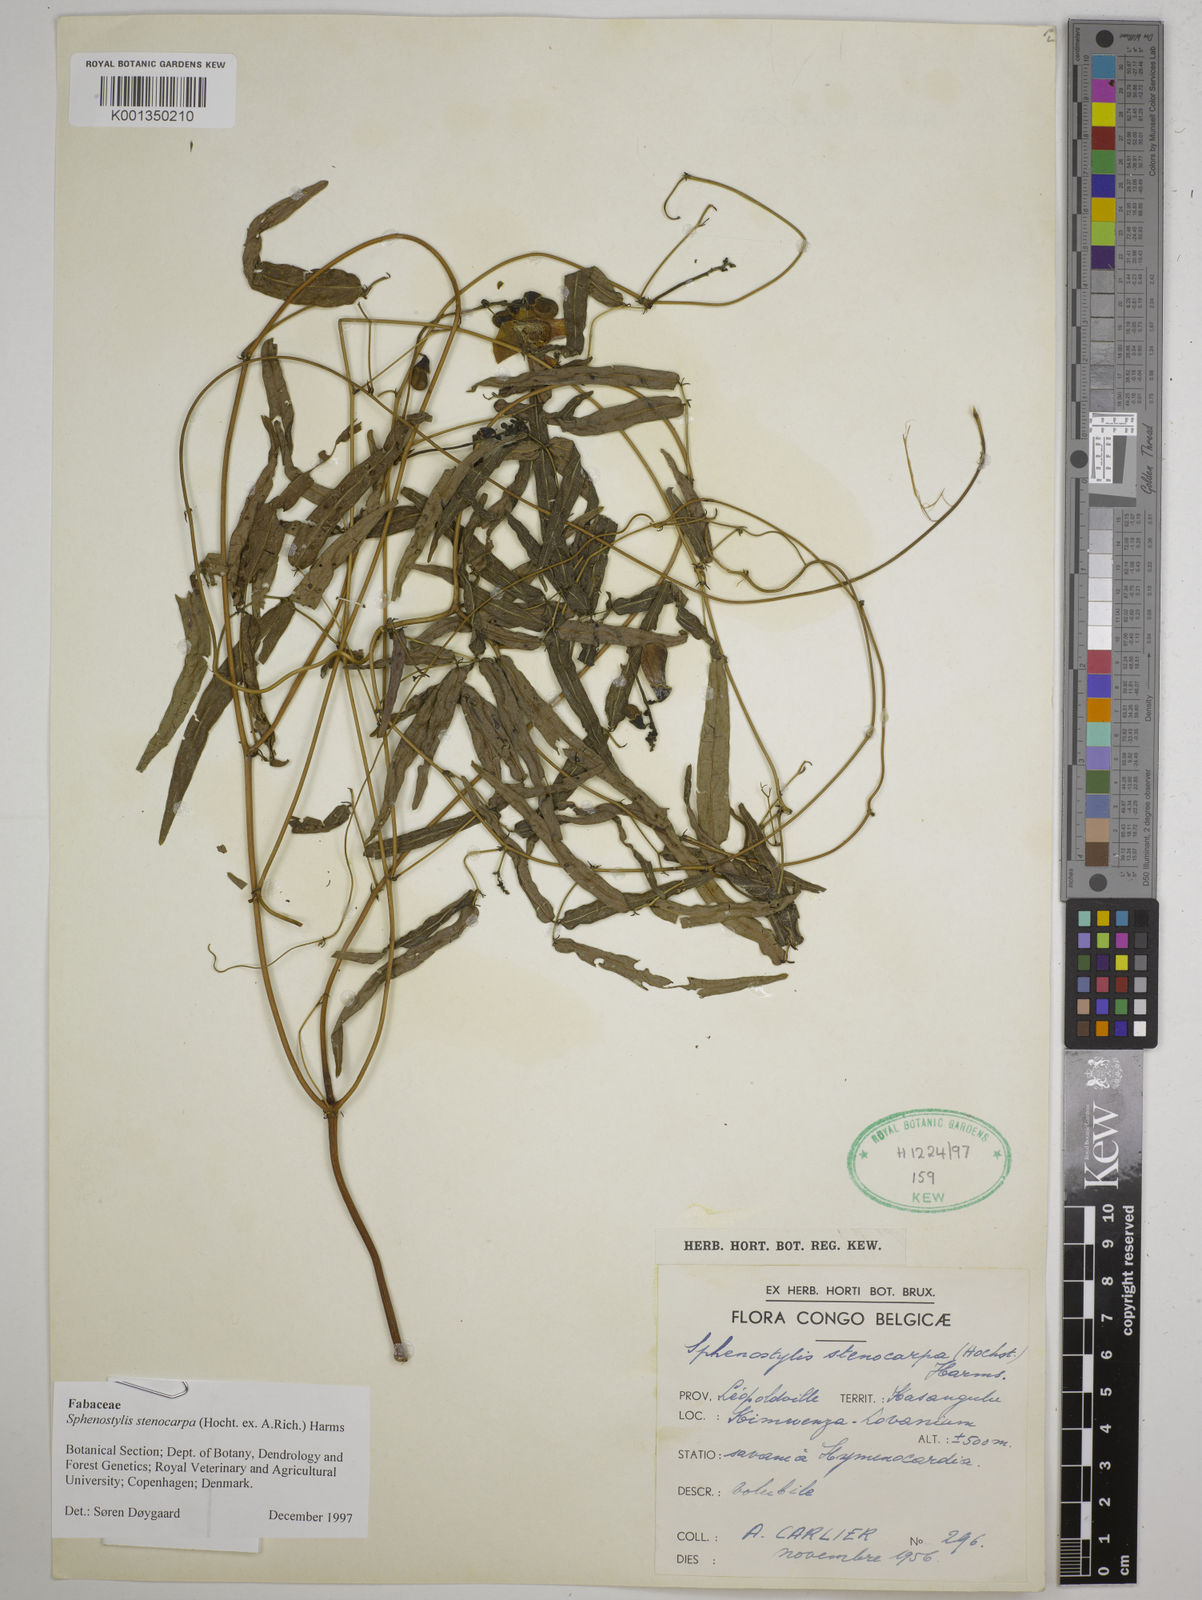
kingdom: Plantae
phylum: Tracheophyta
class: Magnoliopsida
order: Fabales
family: Fabaceae
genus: Sphenostylis
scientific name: Sphenostylis stenocarpa
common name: Yam-pea
